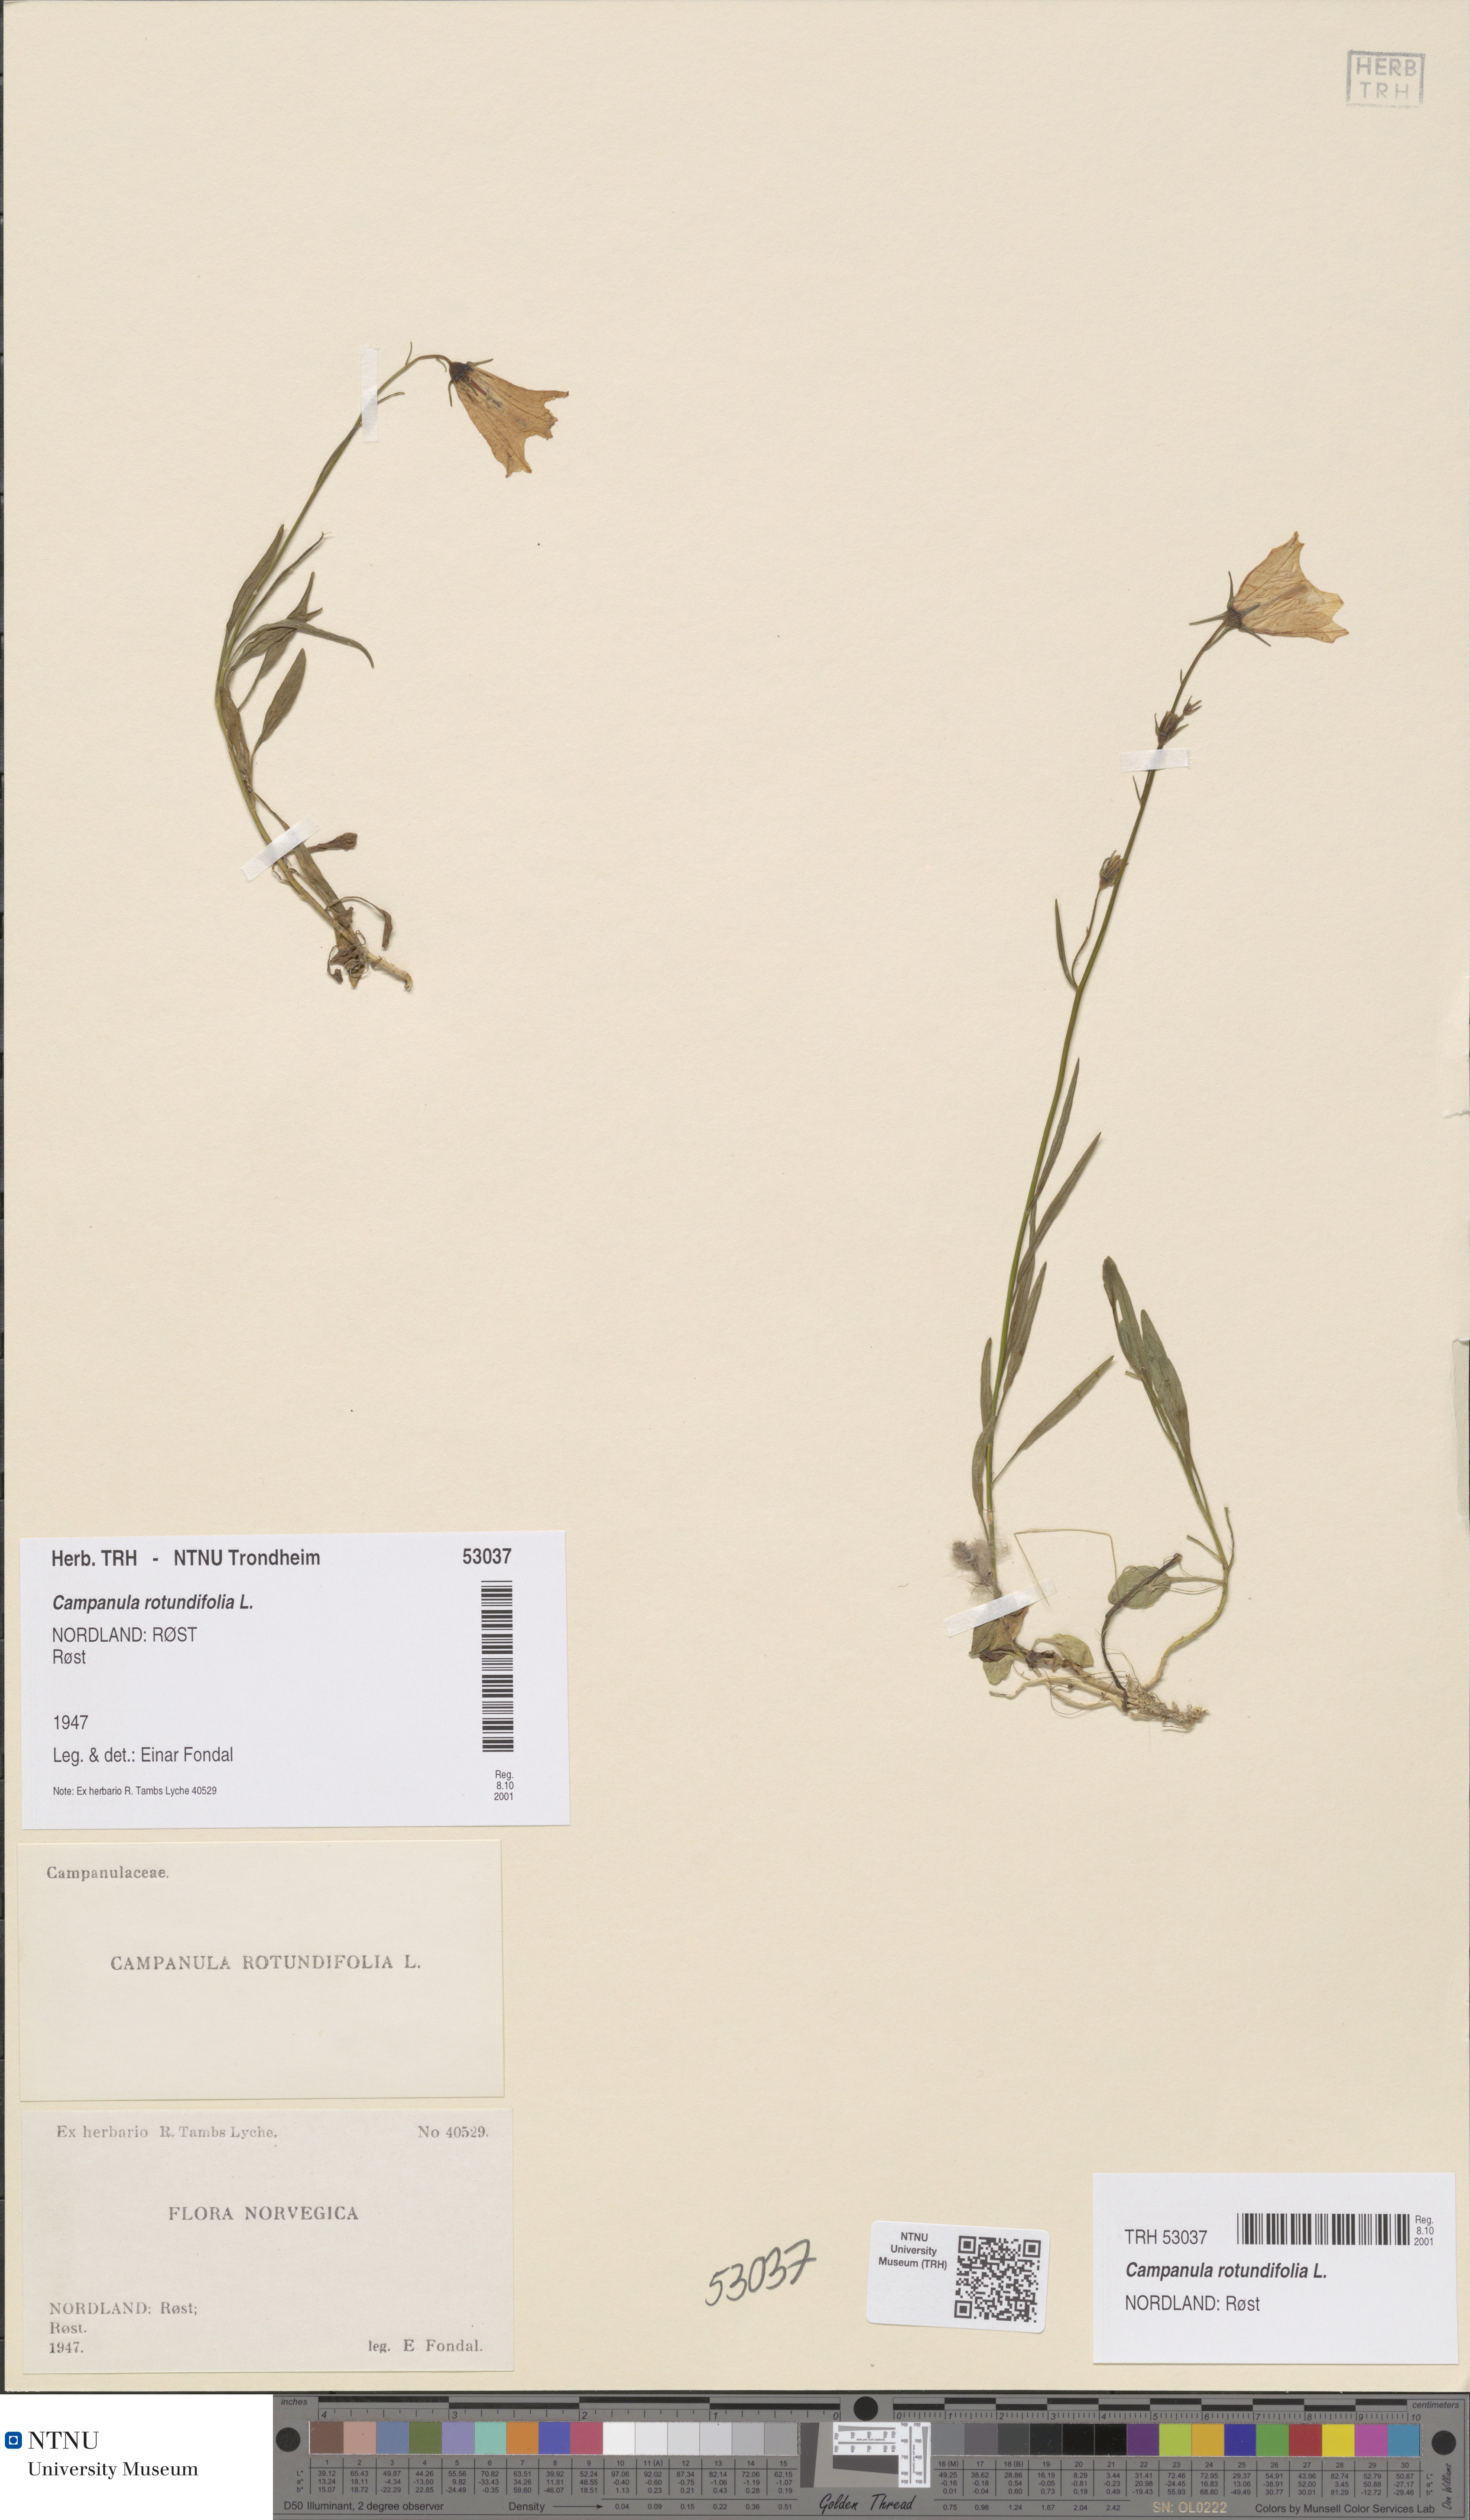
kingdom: Plantae
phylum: Tracheophyta
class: Magnoliopsida
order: Asterales
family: Campanulaceae
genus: Campanula
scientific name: Campanula rotundifolia
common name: Harebell
